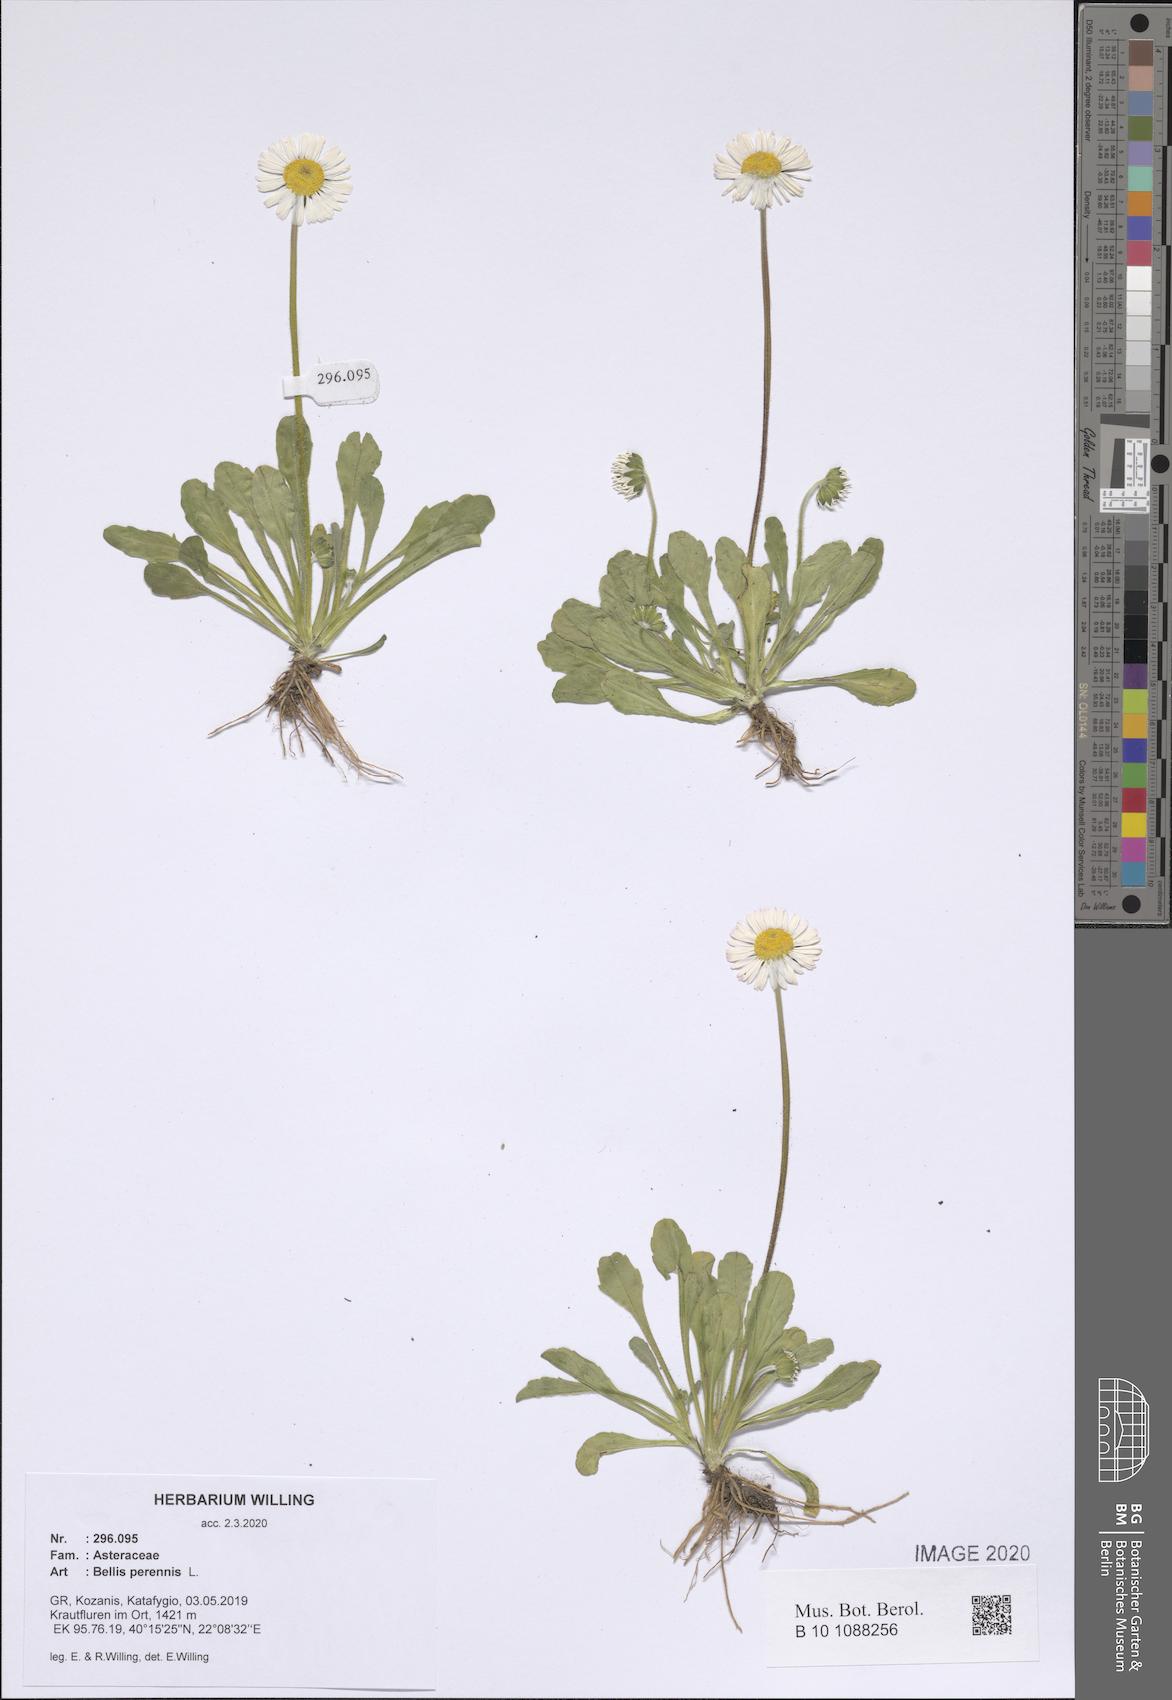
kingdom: Plantae
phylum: Tracheophyta
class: Magnoliopsida
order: Asterales
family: Asteraceae
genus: Bellis
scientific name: Bellis perennis
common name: Lawndaisy
